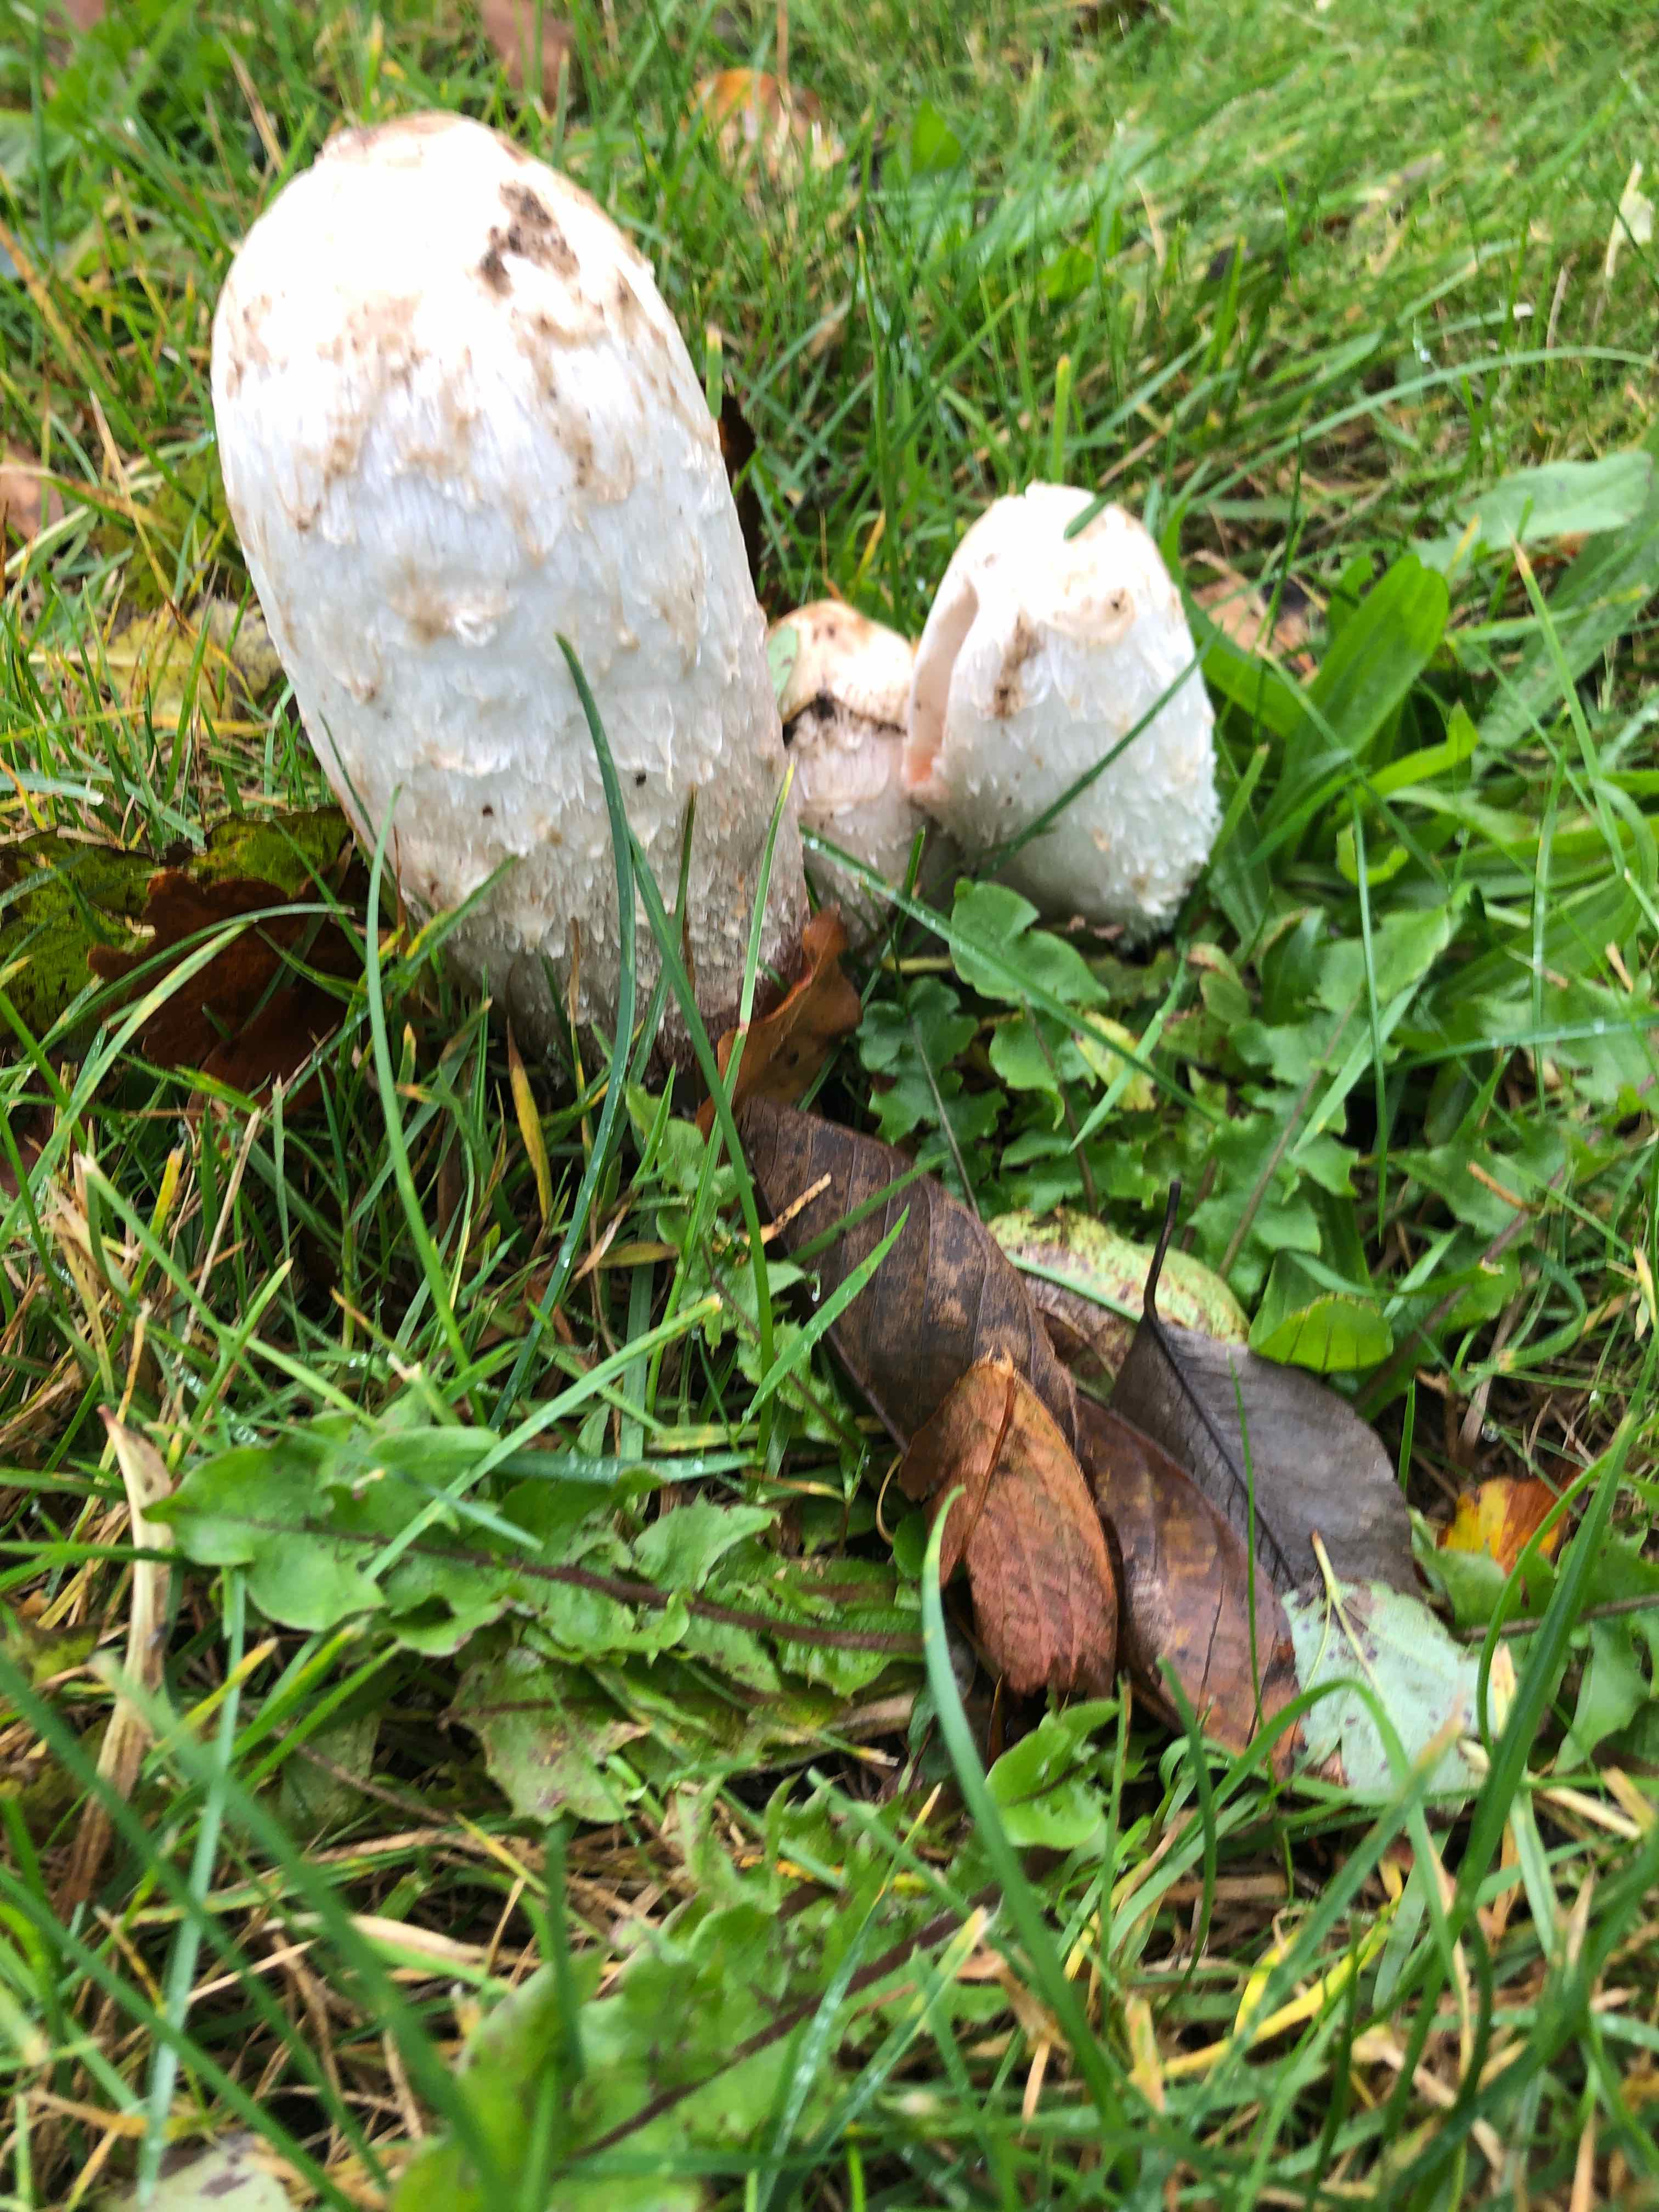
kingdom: Fungi
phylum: Basidiomycota
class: Agaricomycetes
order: Agaricales
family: Agaricaceae
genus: Coprinus
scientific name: Coprinus comatus
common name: stor parykhat
